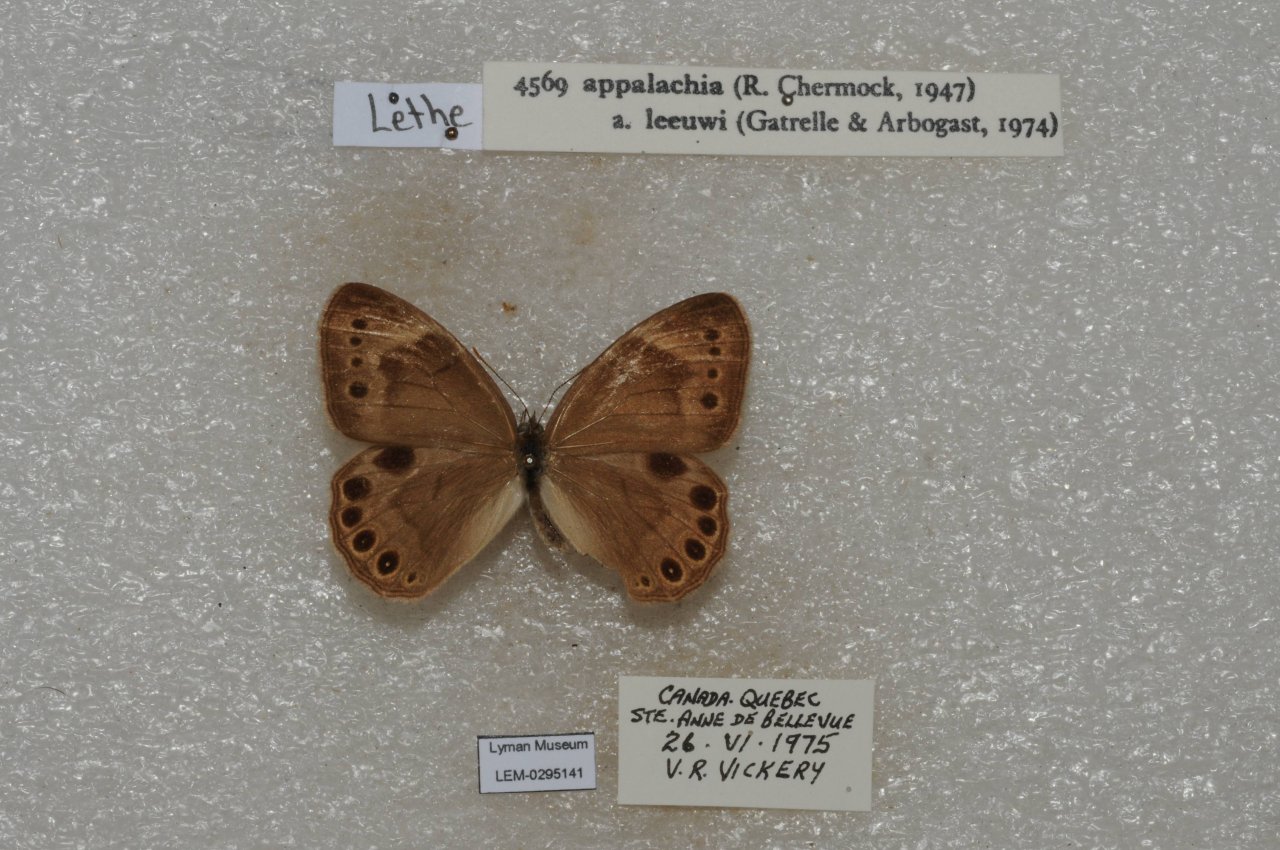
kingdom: Animalia
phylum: Arthropoda
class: Insecta
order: Lepidoptera
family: Nymphalidae
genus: Lethe
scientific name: Lethe eurydice
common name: Appalachian Eyed Brown
